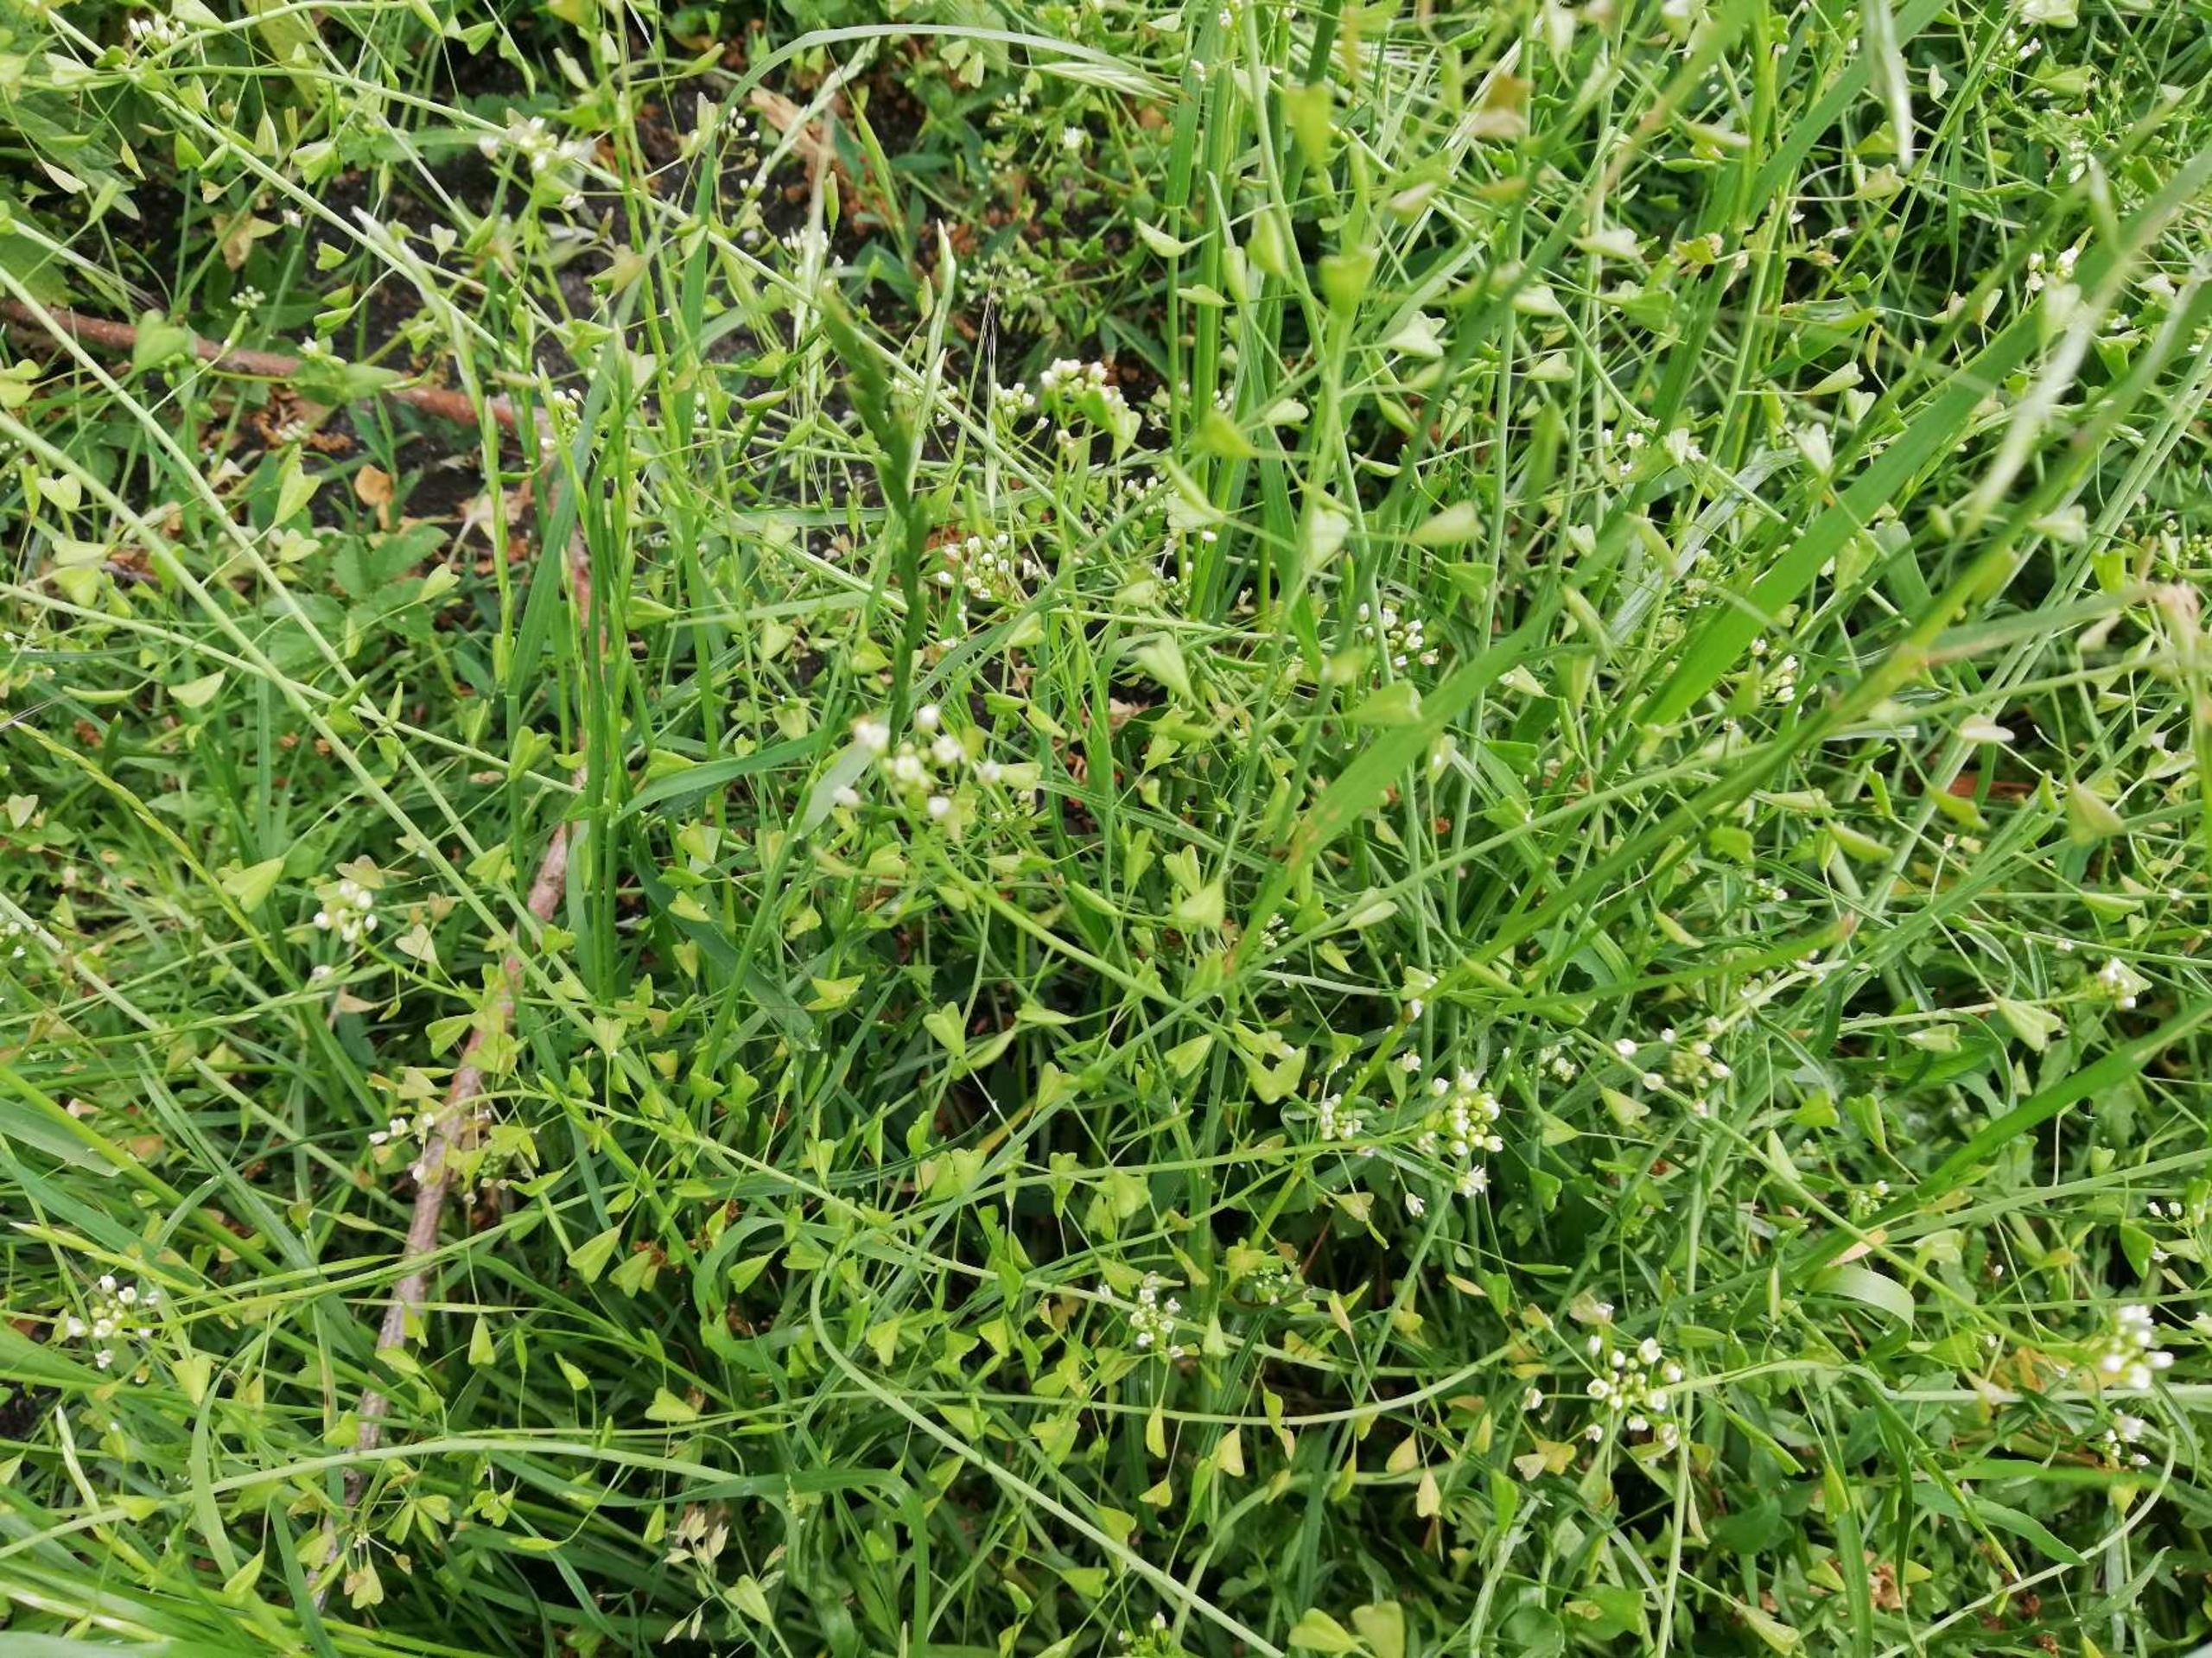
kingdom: Plantae
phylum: Tracheophyta
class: Magnoliopsida
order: Brassicales
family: Brassicaceae
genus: Capsella
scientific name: Capsella bursa-pastoris
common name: Hyrdetaske
